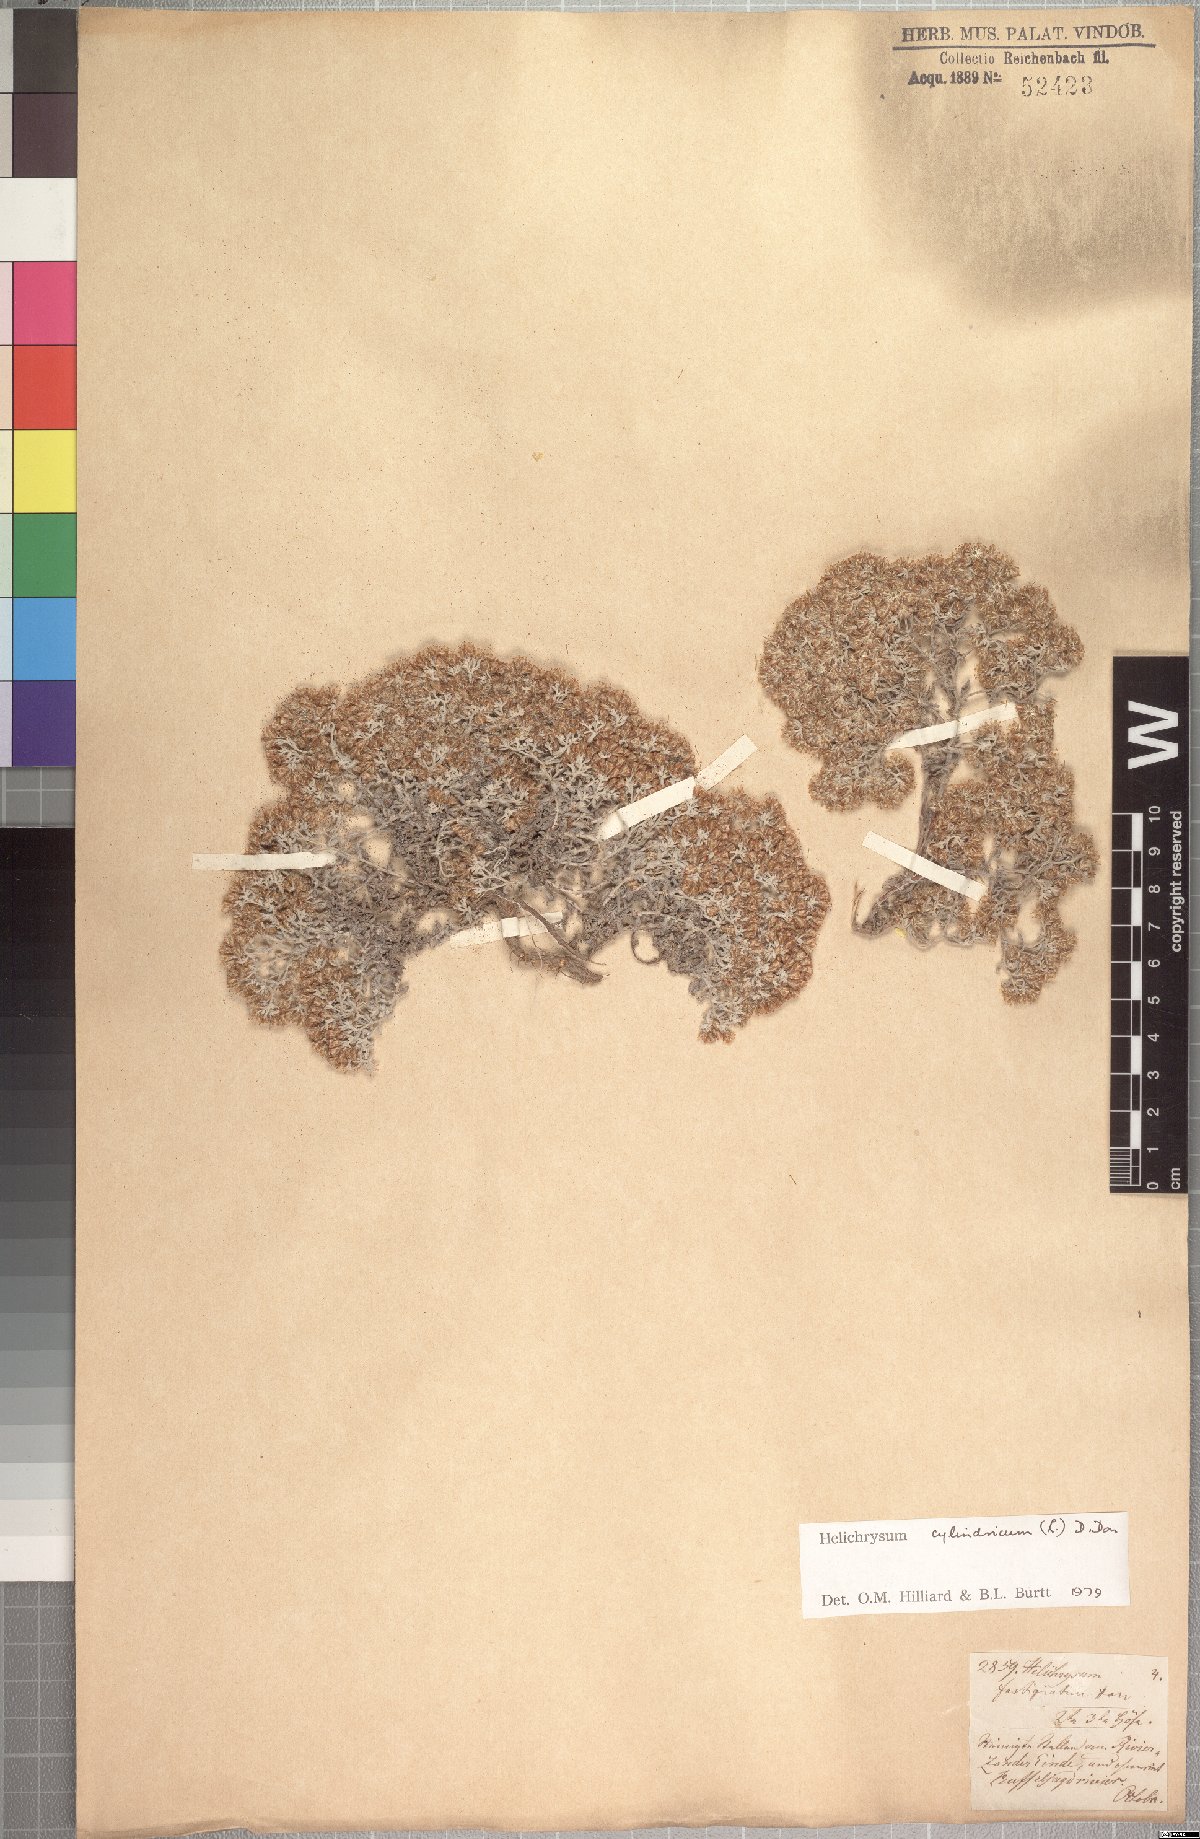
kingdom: Plantae
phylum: Tracheophyta
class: Magnoliopsida
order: Asterales
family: Asteraceae
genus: Helichrysum
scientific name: Helichrysum cylindriflorum
